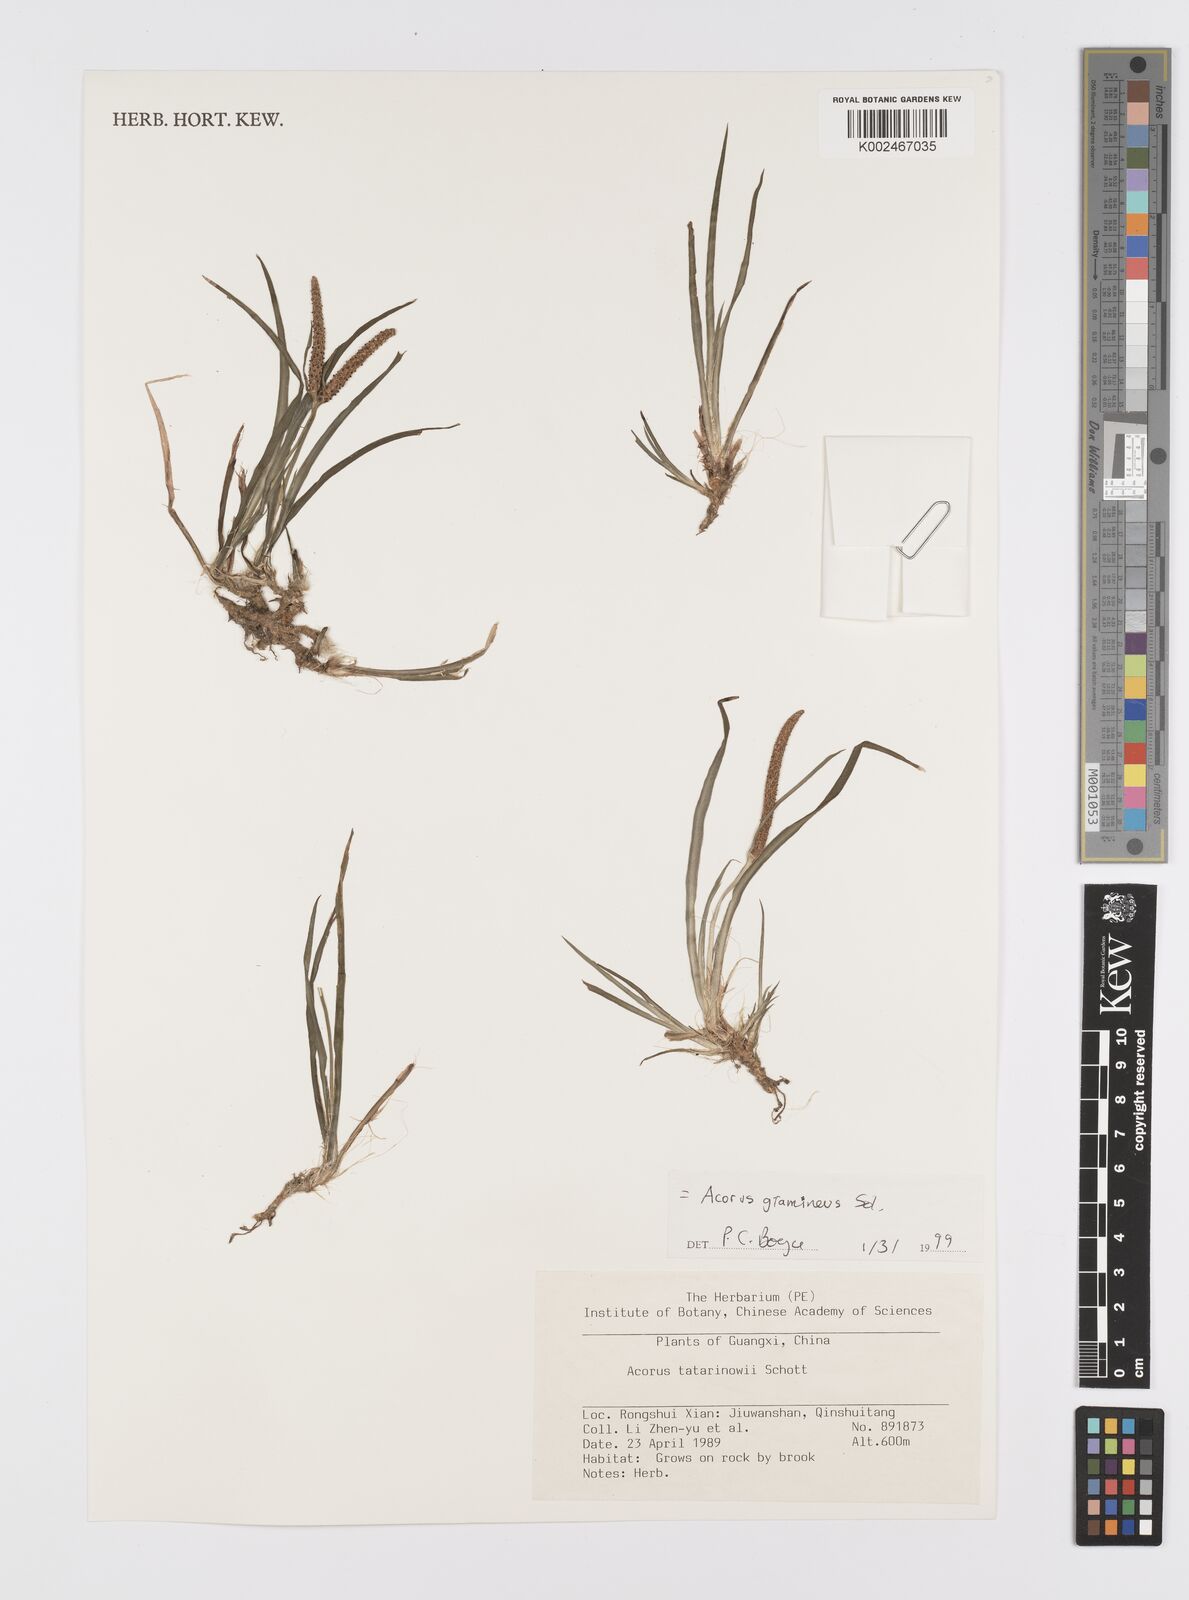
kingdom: Plantae
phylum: Tracheophyta
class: Liliopsida
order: Acorales
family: Acoraceae
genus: Acorus
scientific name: Acorus gramineus
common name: Slender sweet-flag
